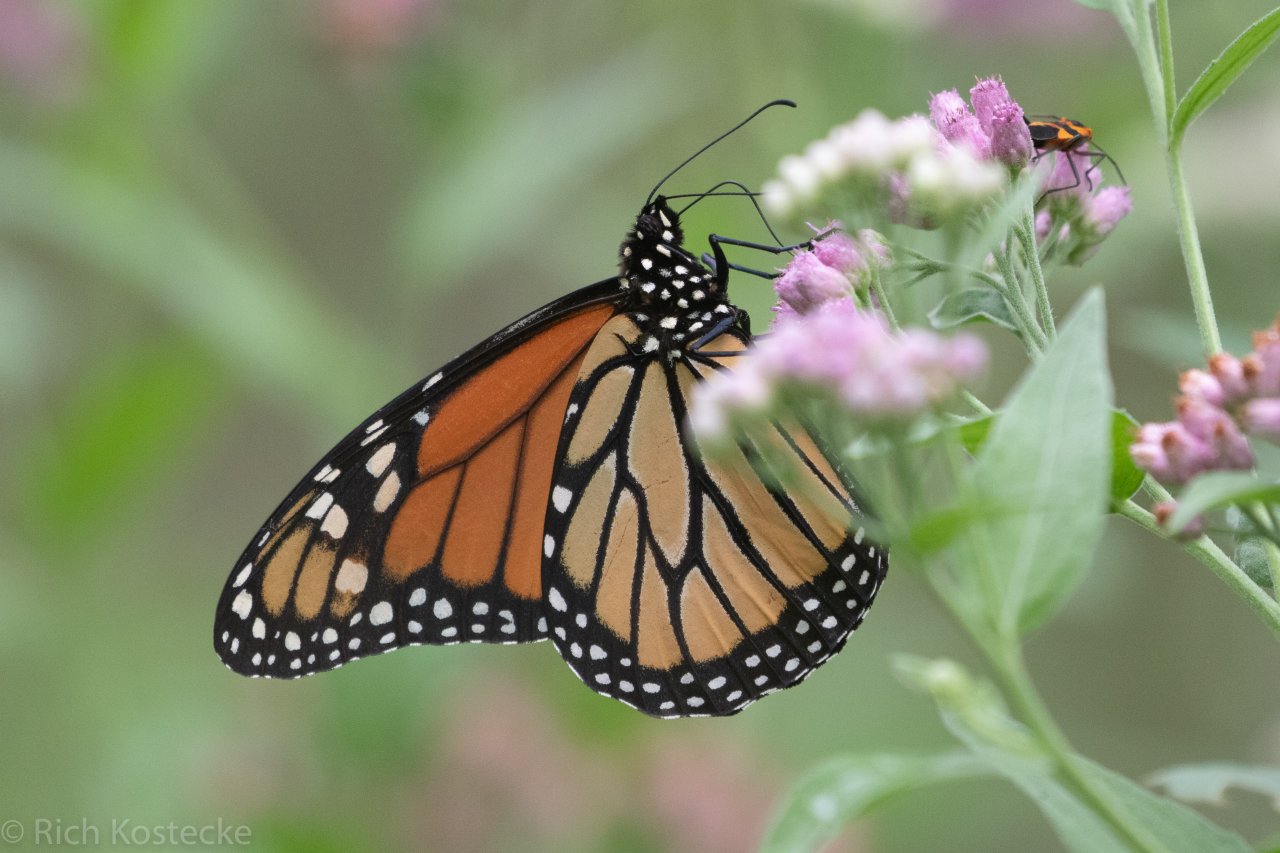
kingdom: Animalia
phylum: Arthropoda
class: Insecta
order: Lepidoptera
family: Nymphalidae
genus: Danaus
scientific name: Danaus plexippus
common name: Monarch
